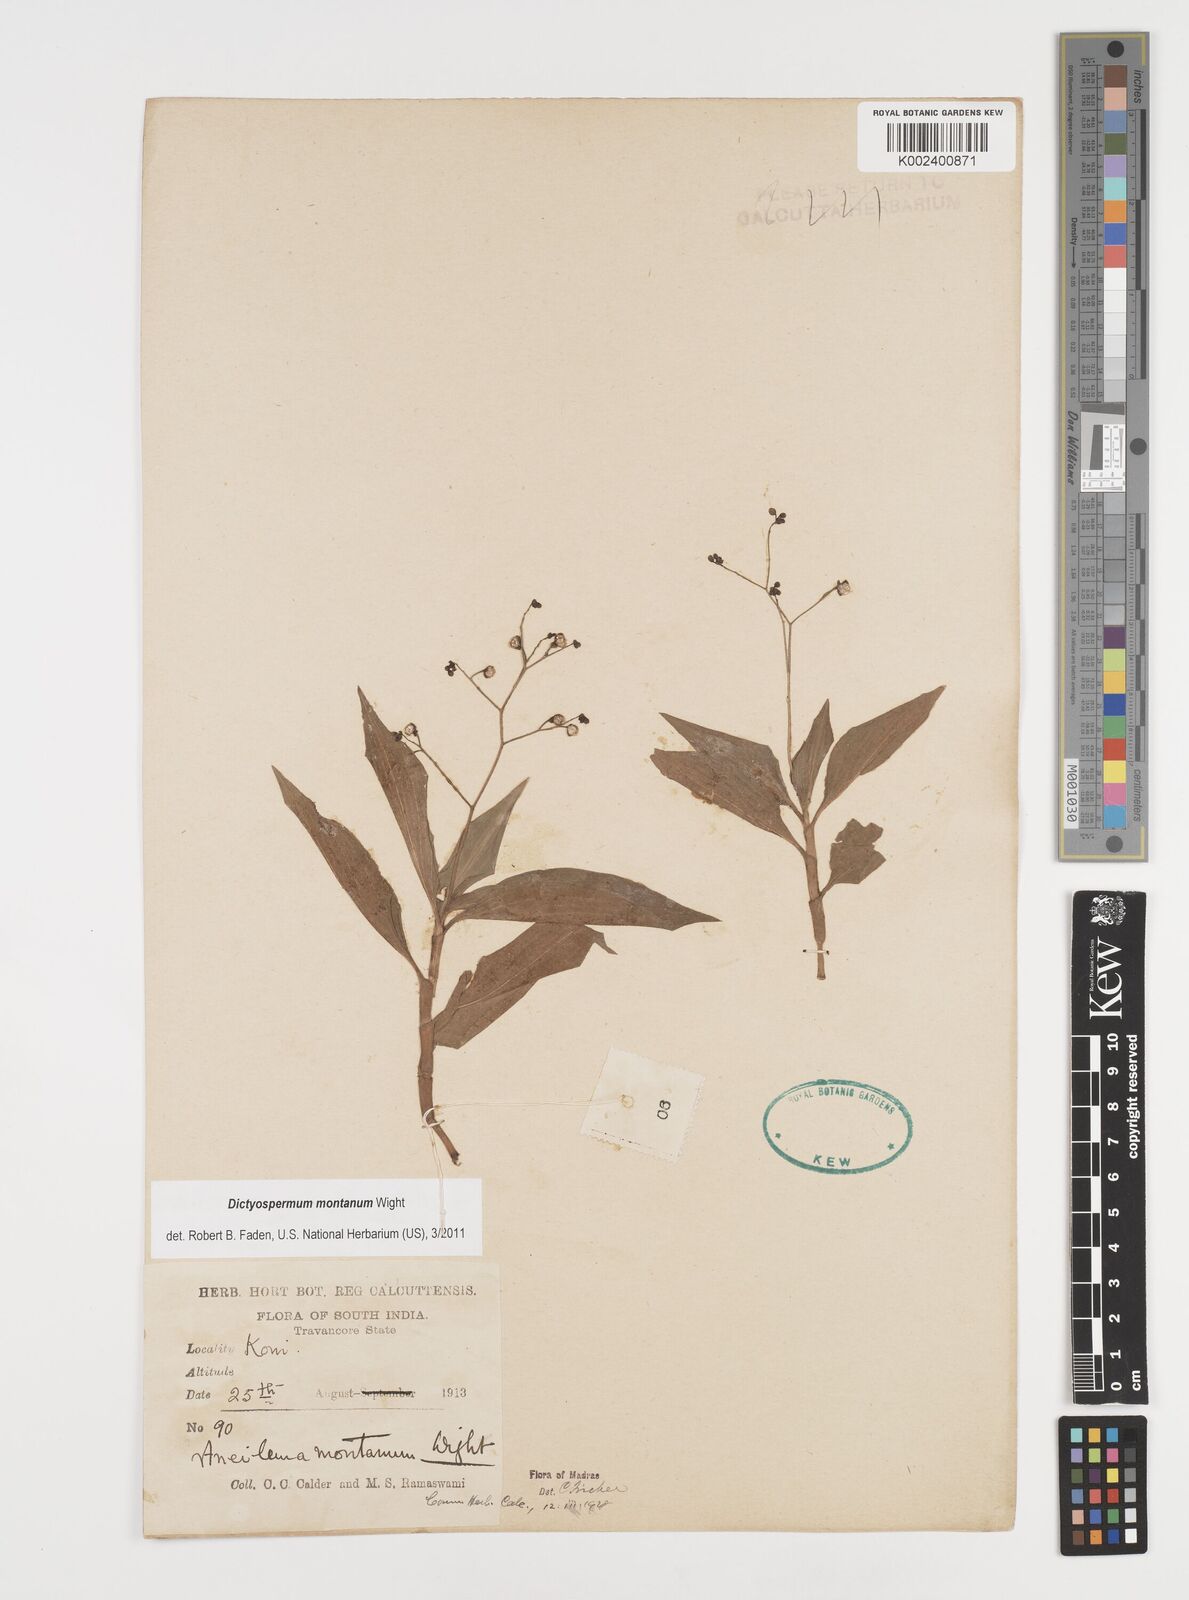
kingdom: Plantae
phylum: Tracheophyta
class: Liliopsida
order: Commelinales
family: Commelinaceae
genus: Dictyospermum
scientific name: Dictyospermum montanum
